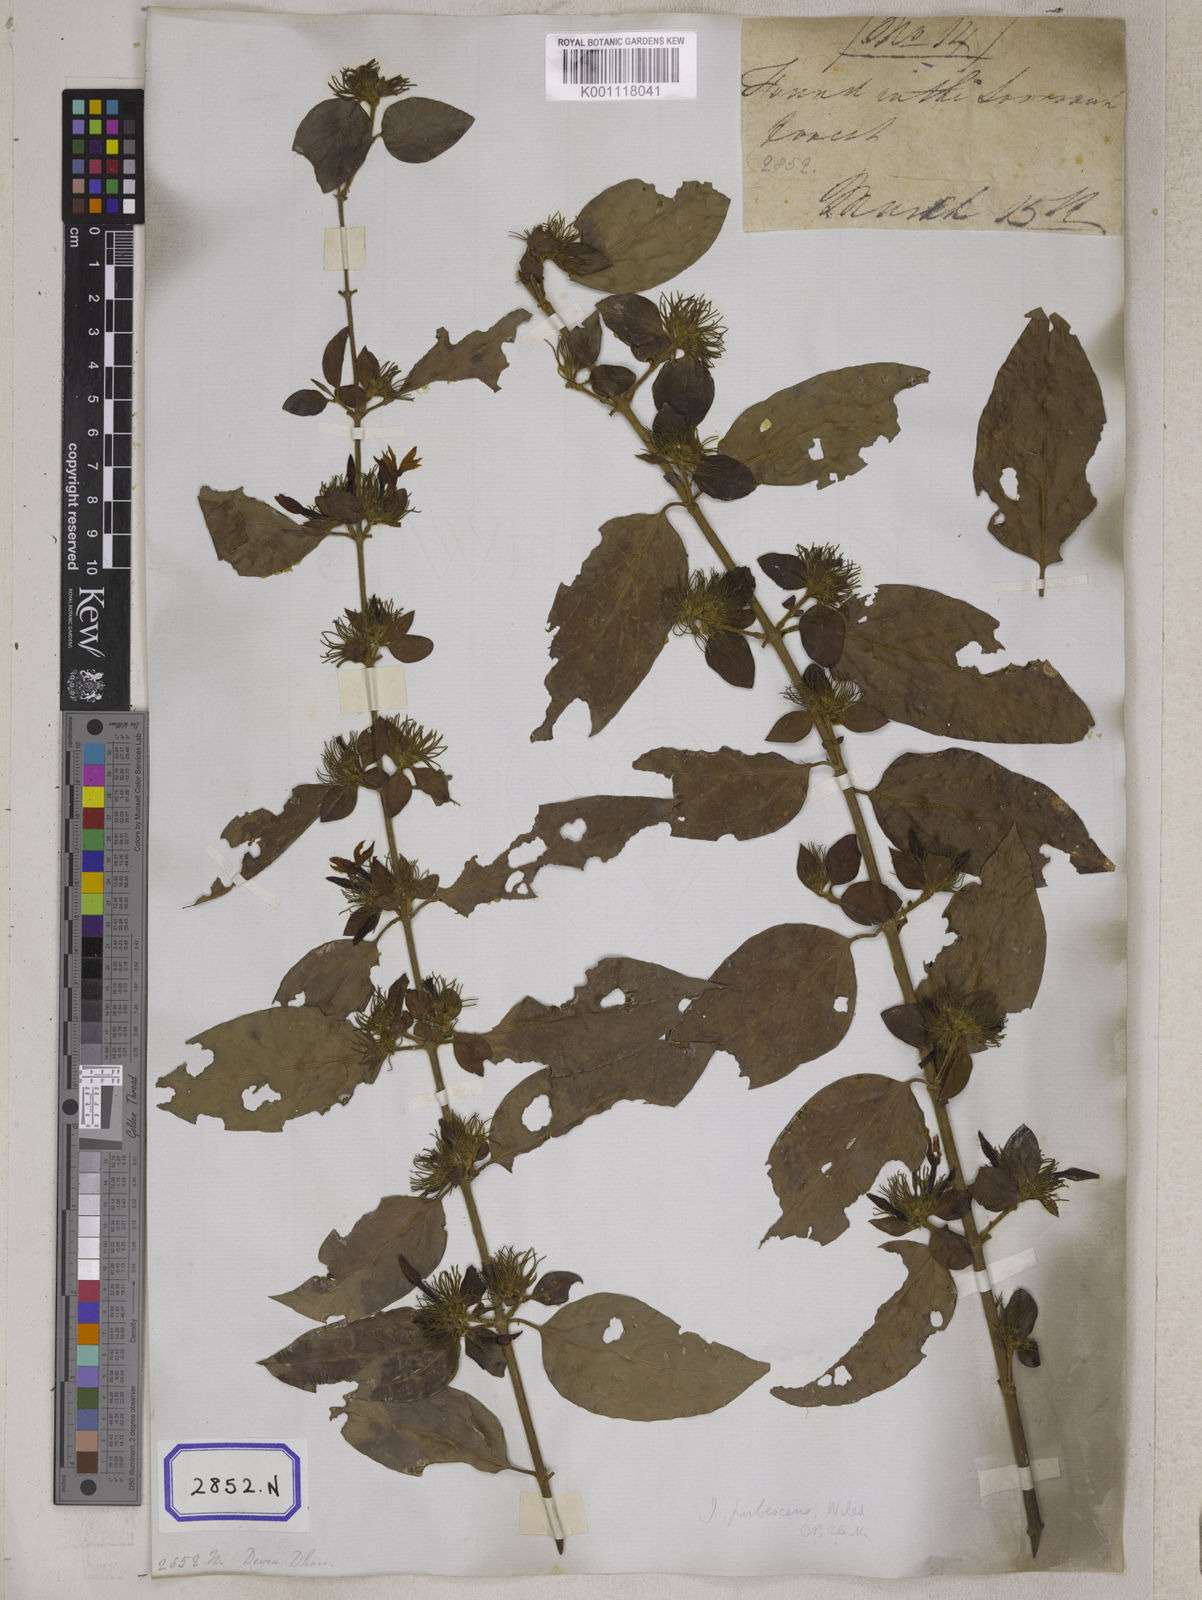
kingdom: Plantae
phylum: Tracheophyta
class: Magnoliopsida
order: Gentianales
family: Rubiaceae
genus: Guettarda
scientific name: Guettarda speciosa
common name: Sea randa
